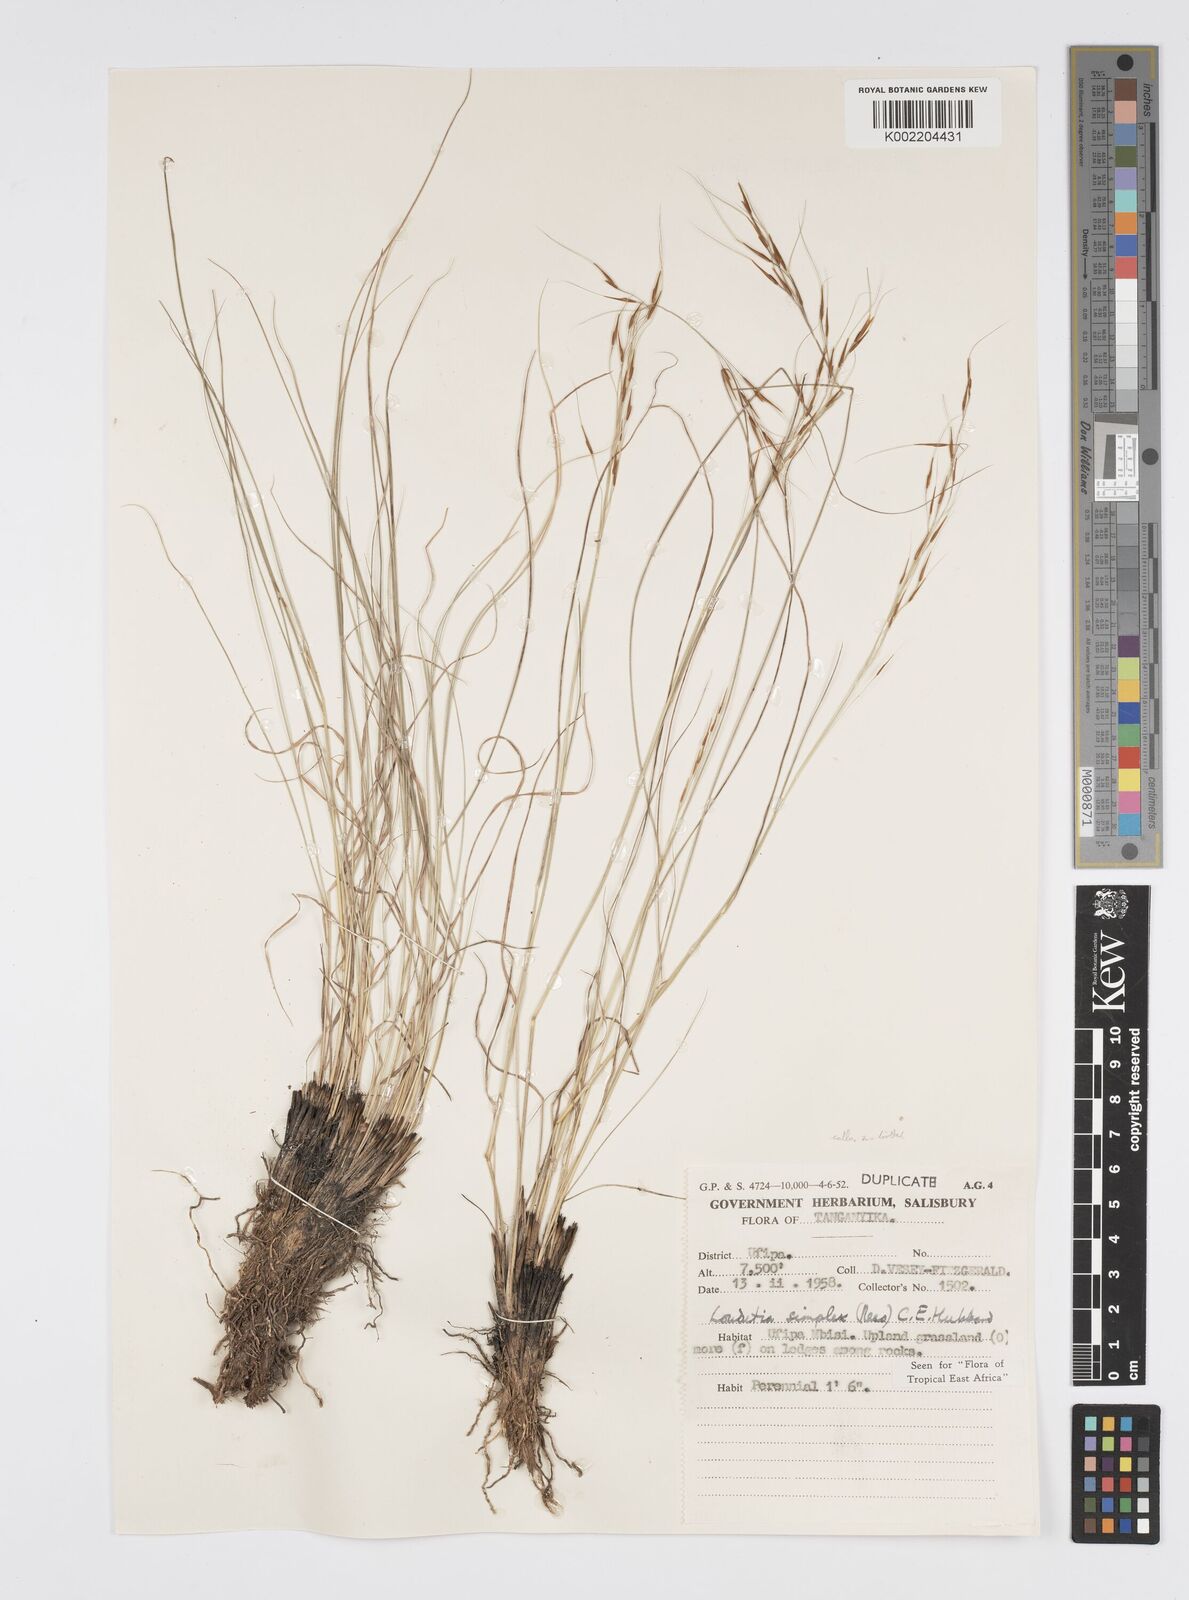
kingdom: Plantae
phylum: Tracheophyta
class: Liliopsida
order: Poales
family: Poaceae
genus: Loudetia
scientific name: Loudetia simplex
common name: Common russet grass
